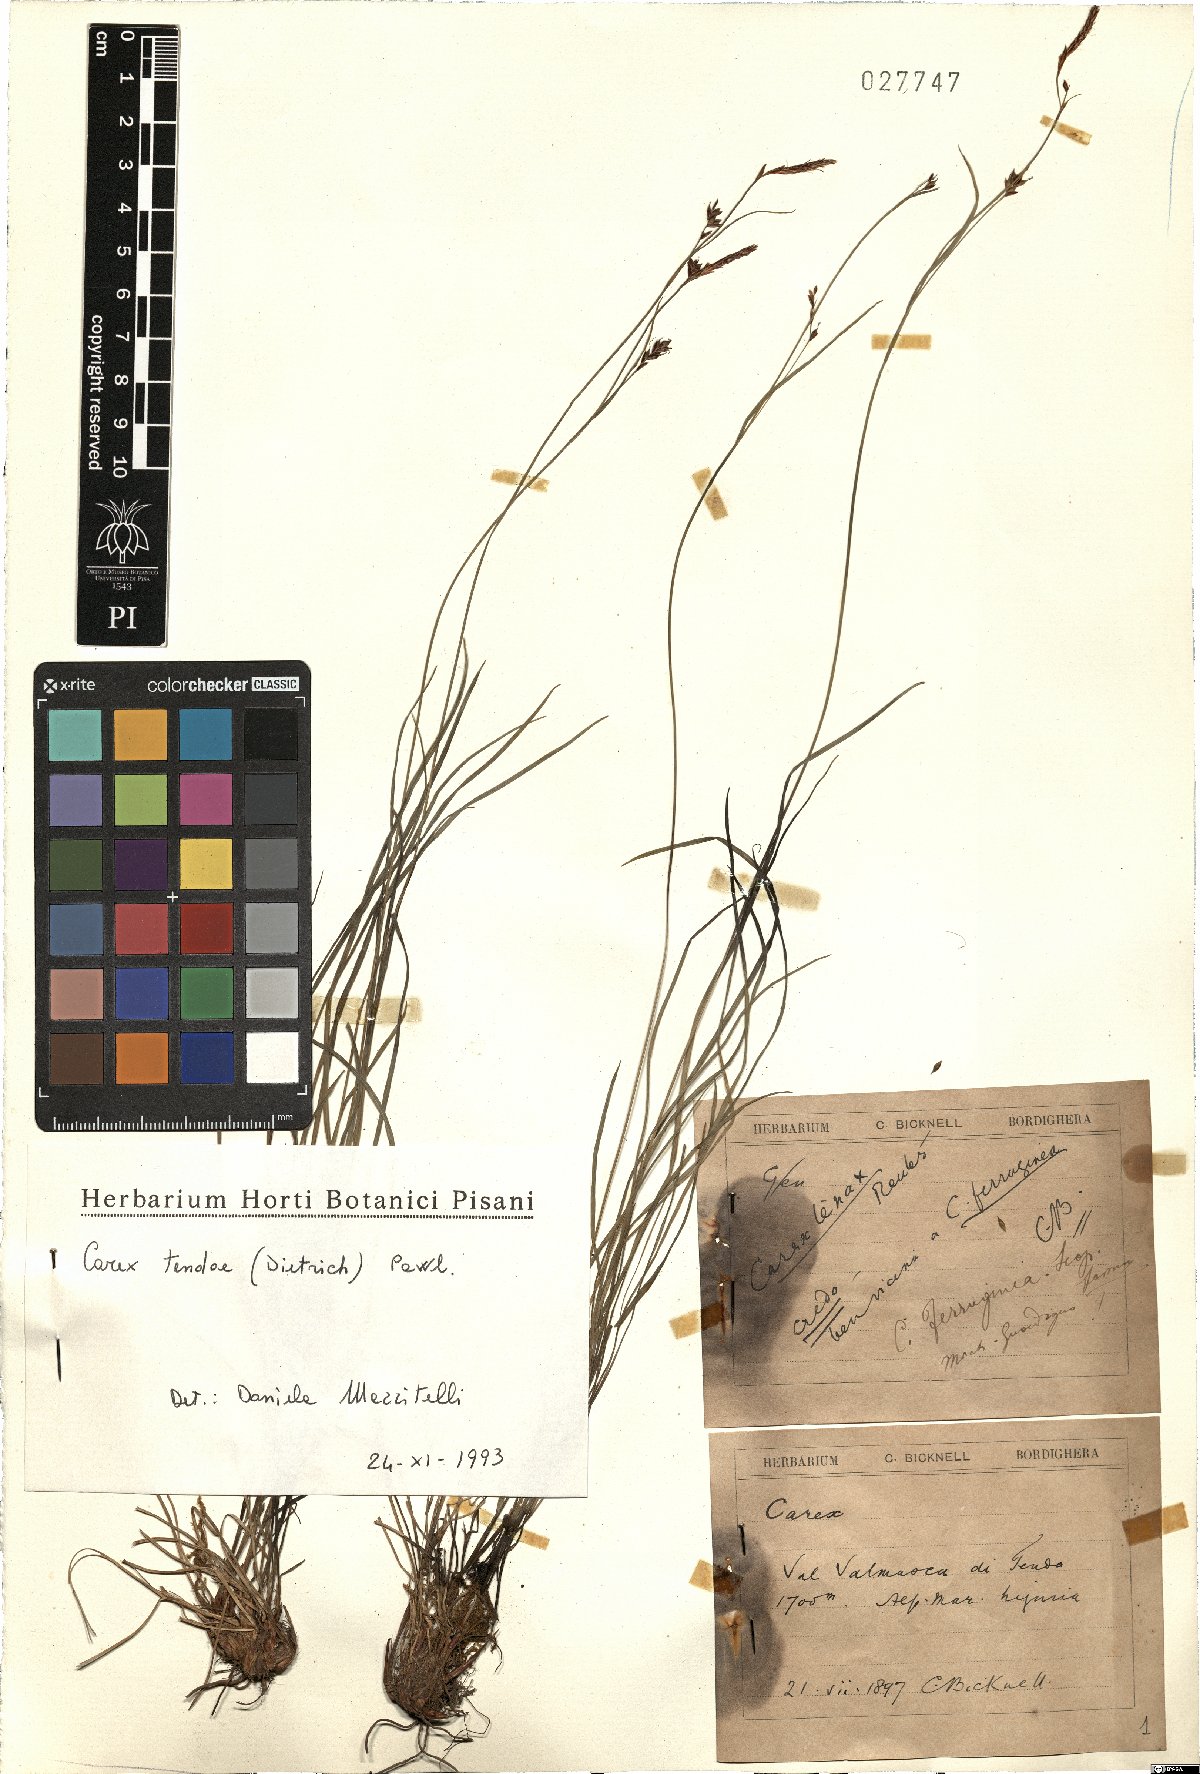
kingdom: Plantae
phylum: Tracheophyta
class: Liliopsida
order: Poales
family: Cyperaceae
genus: Carex
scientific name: Carex austroalpina
